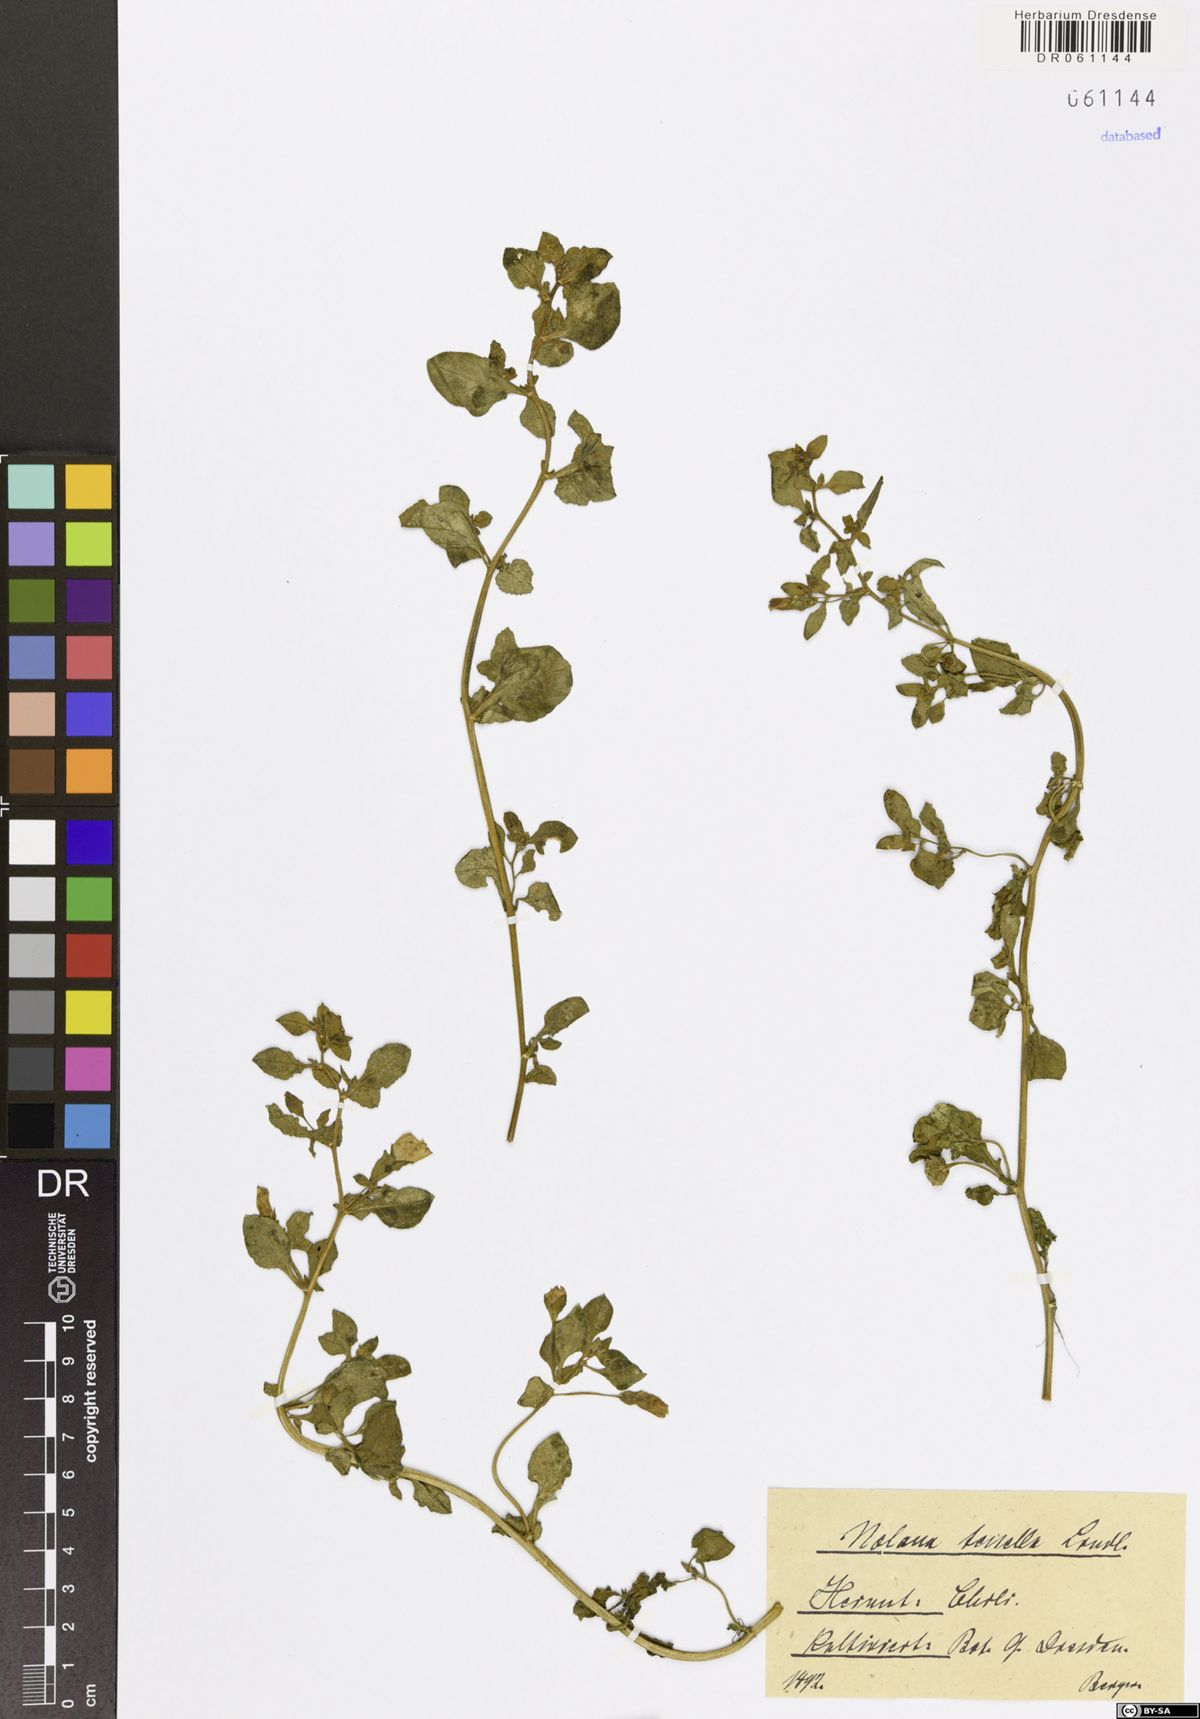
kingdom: Plantae
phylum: Tracheophyta
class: Magnoliopsida
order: Solanales
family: Solanaceae
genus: Nolana
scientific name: Nolana tenella
